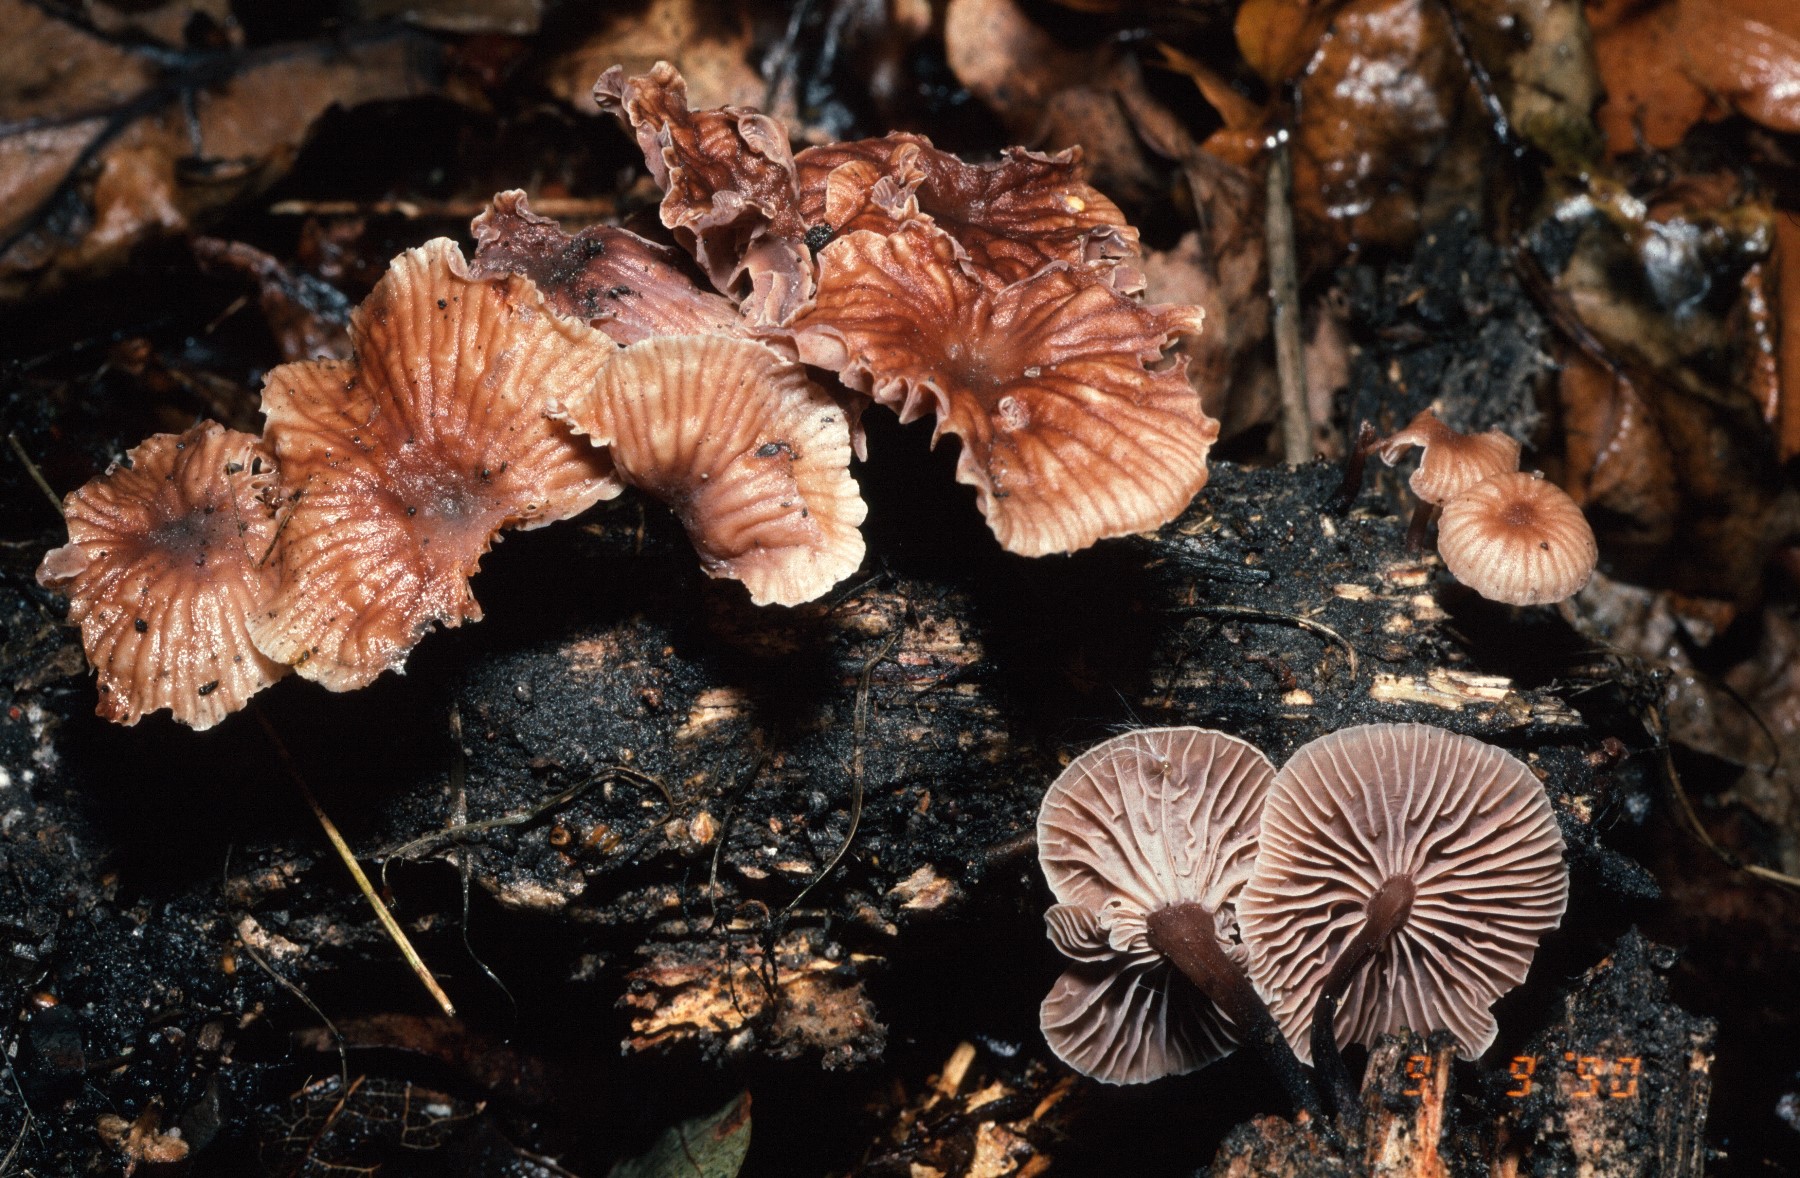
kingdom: Fungi
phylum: Basidiomycota
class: Agaricomycetes
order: Agaricales
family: Omphalotaceae
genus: Gymnopus
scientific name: Gymnopus foetidus
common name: stinkende fladhat
